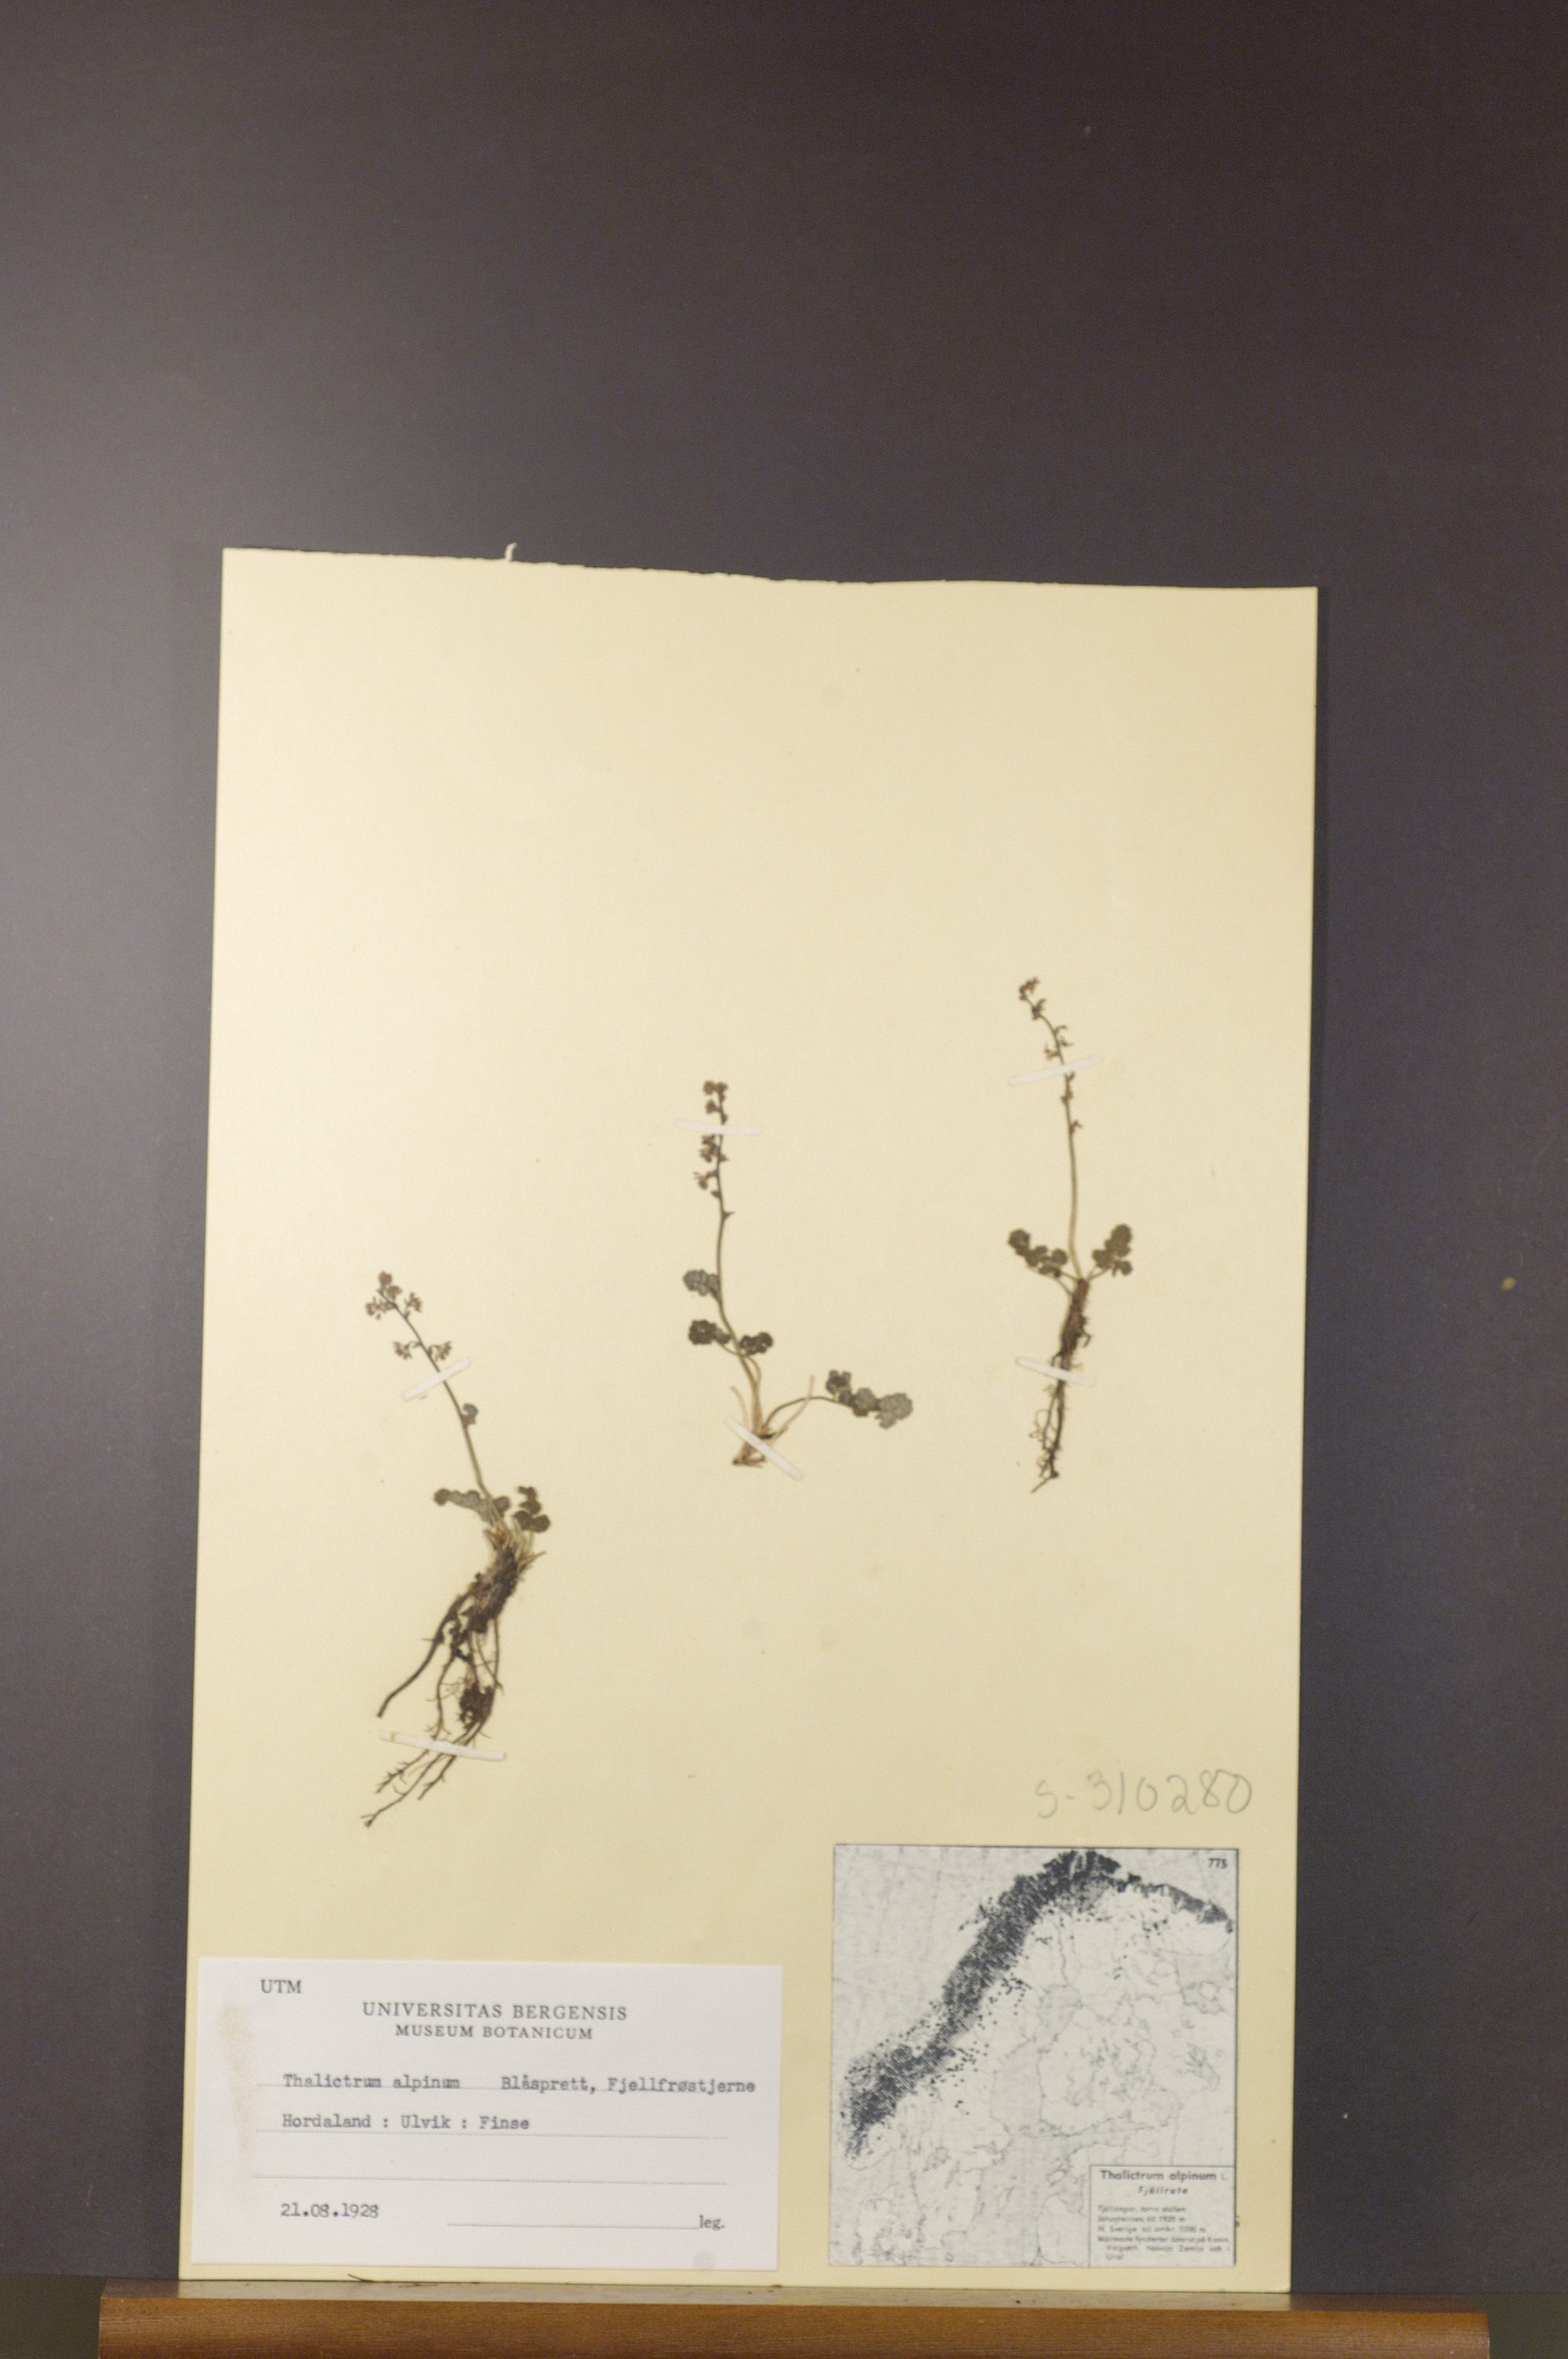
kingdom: Plantae
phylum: Tracheophyta
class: Magnoliopsida
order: Ranunculales
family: Ranunculaceae
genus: Thalictrum
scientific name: Thalictrum alpinum
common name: Alpine meadow-rue
